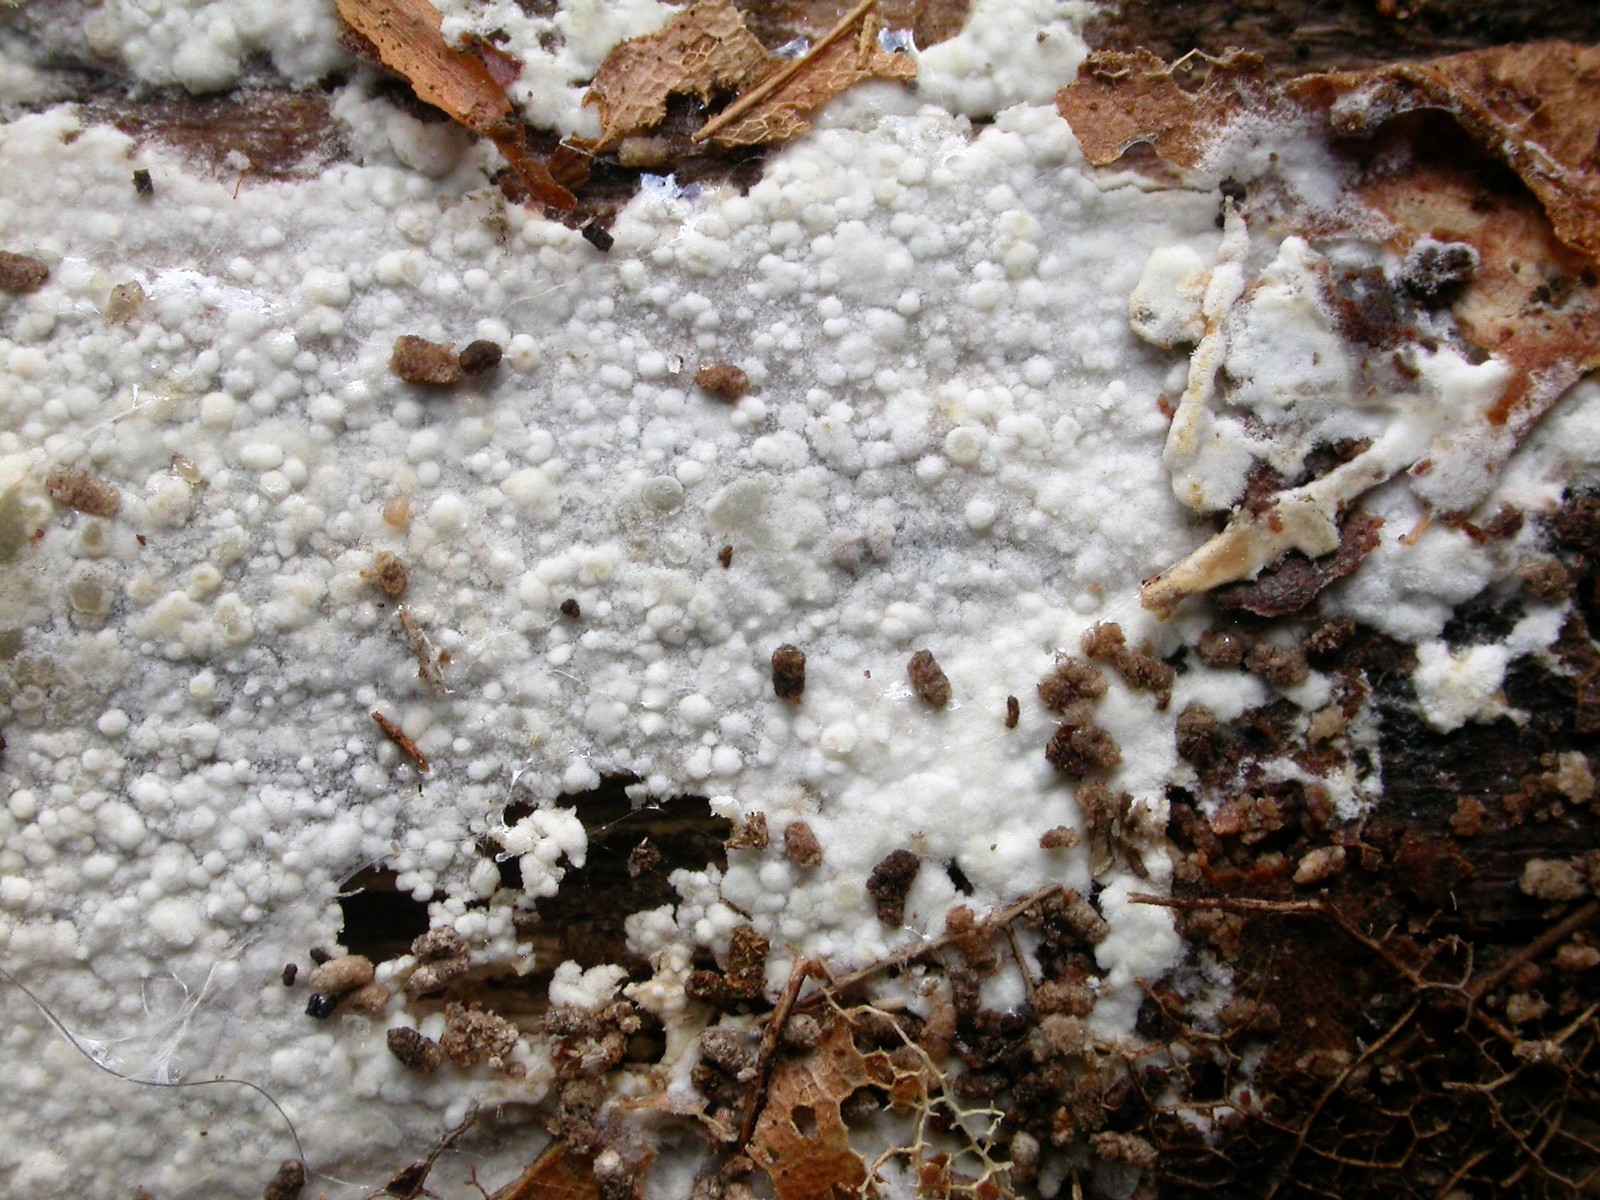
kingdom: Fungi
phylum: Basidiomycota
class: Agaricomycetes
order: Hymenochaetales
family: Rickenellaceae
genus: Peniophorella
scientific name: Peniophorella praetermissa
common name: almindelig kalkskind
